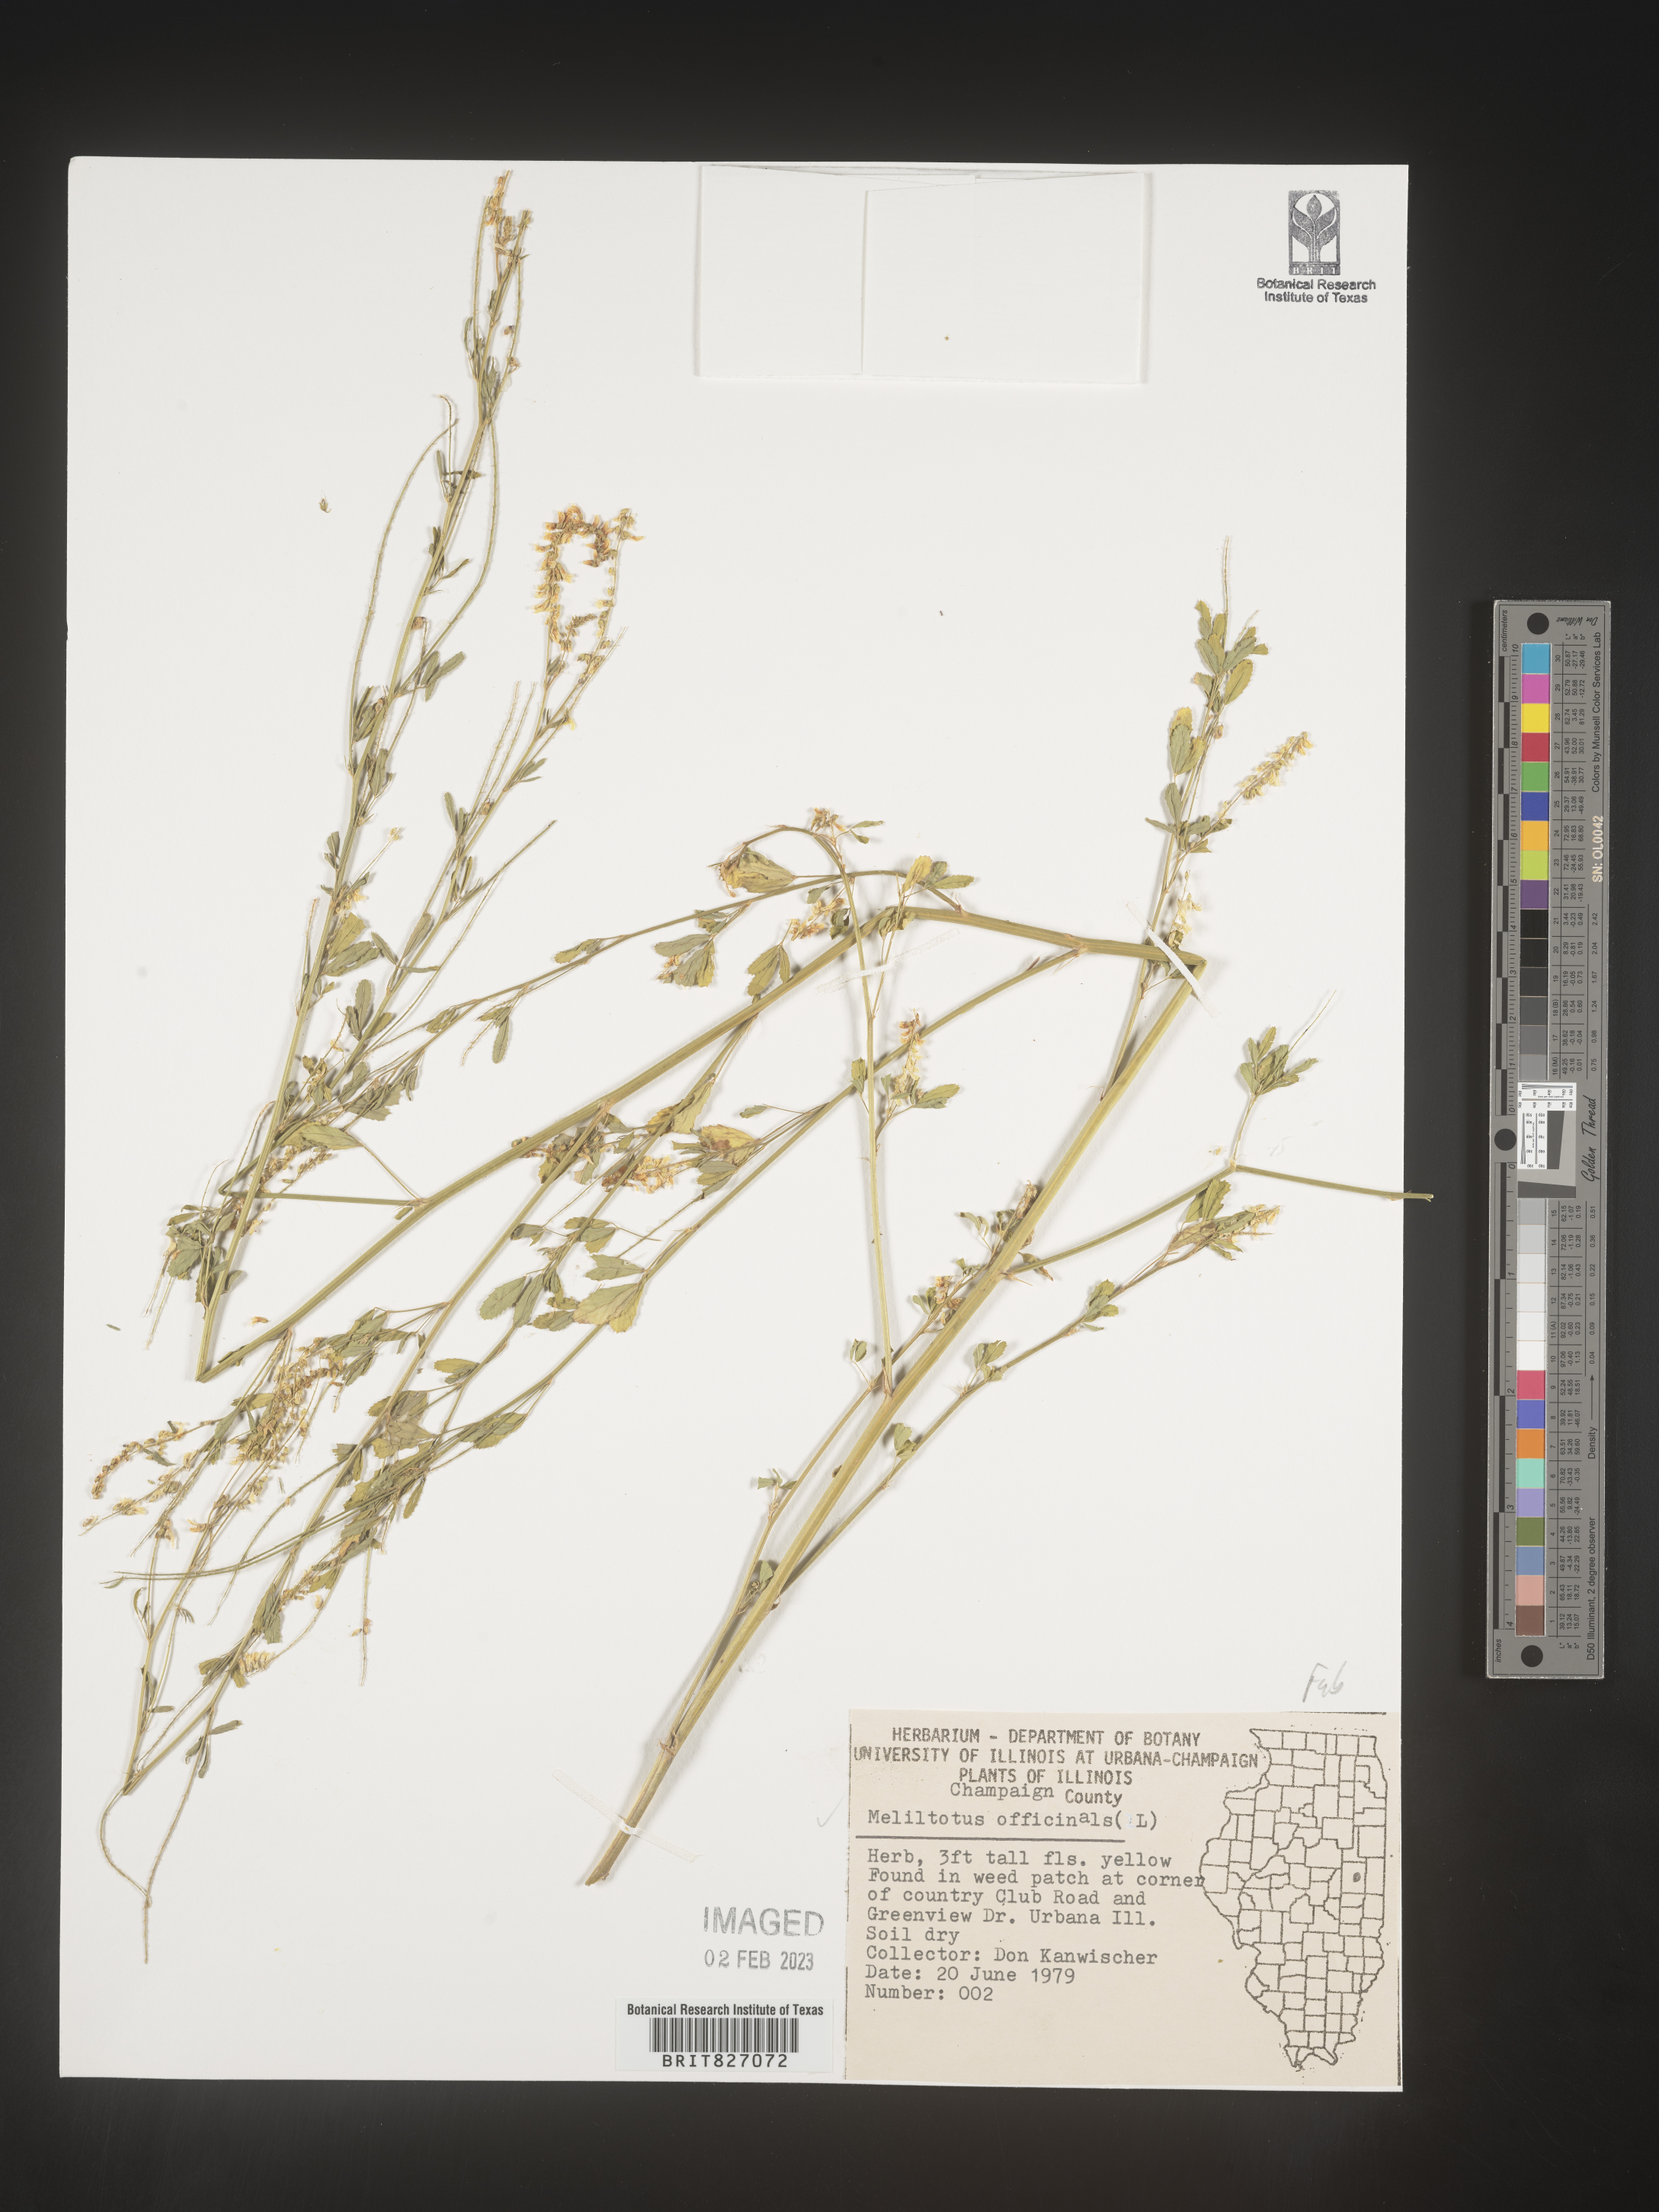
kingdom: Plantae
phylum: Tracheophyta
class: Magnoliopsida
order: Fabales
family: Fabaceae
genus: Melilotus
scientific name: Melilotus officinalis
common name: Sweetclover
